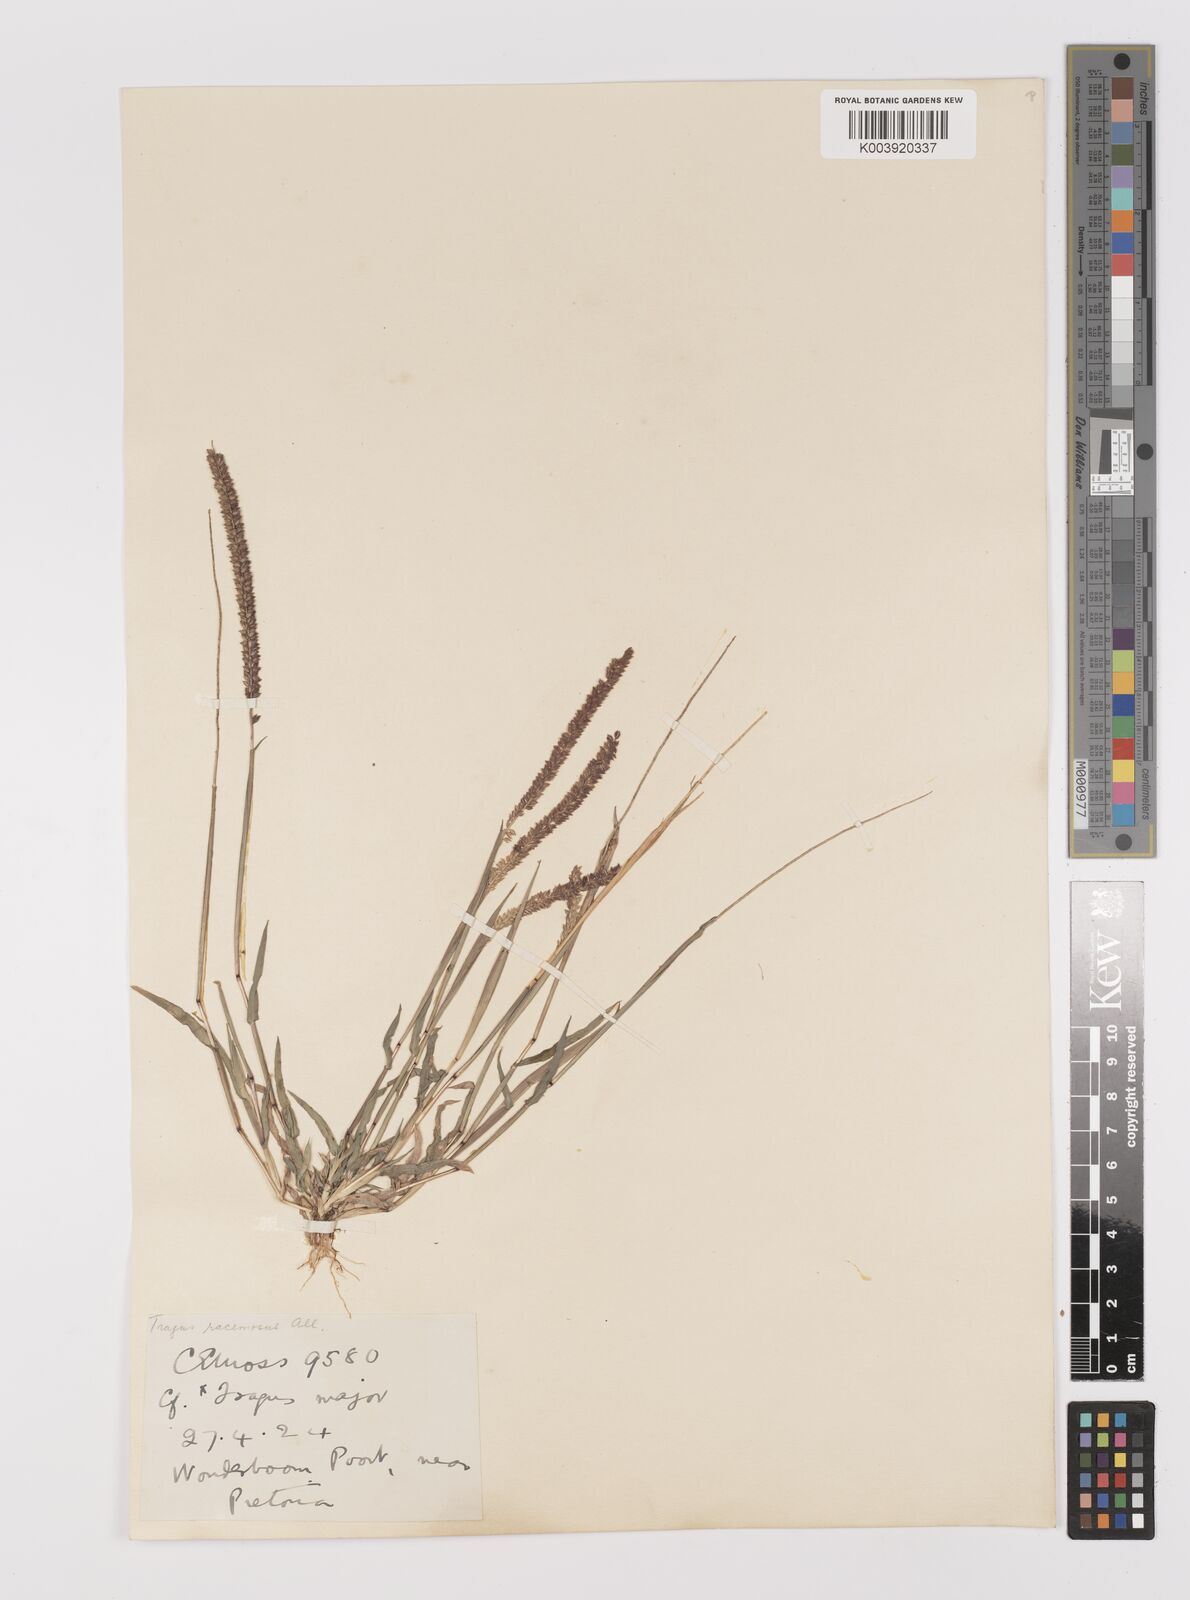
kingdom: Plantae
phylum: Tracheophyta
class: Liliopsida
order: Poales
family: Poaceae
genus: Tragus
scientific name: Tragus berteronianus
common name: African bur-grass
